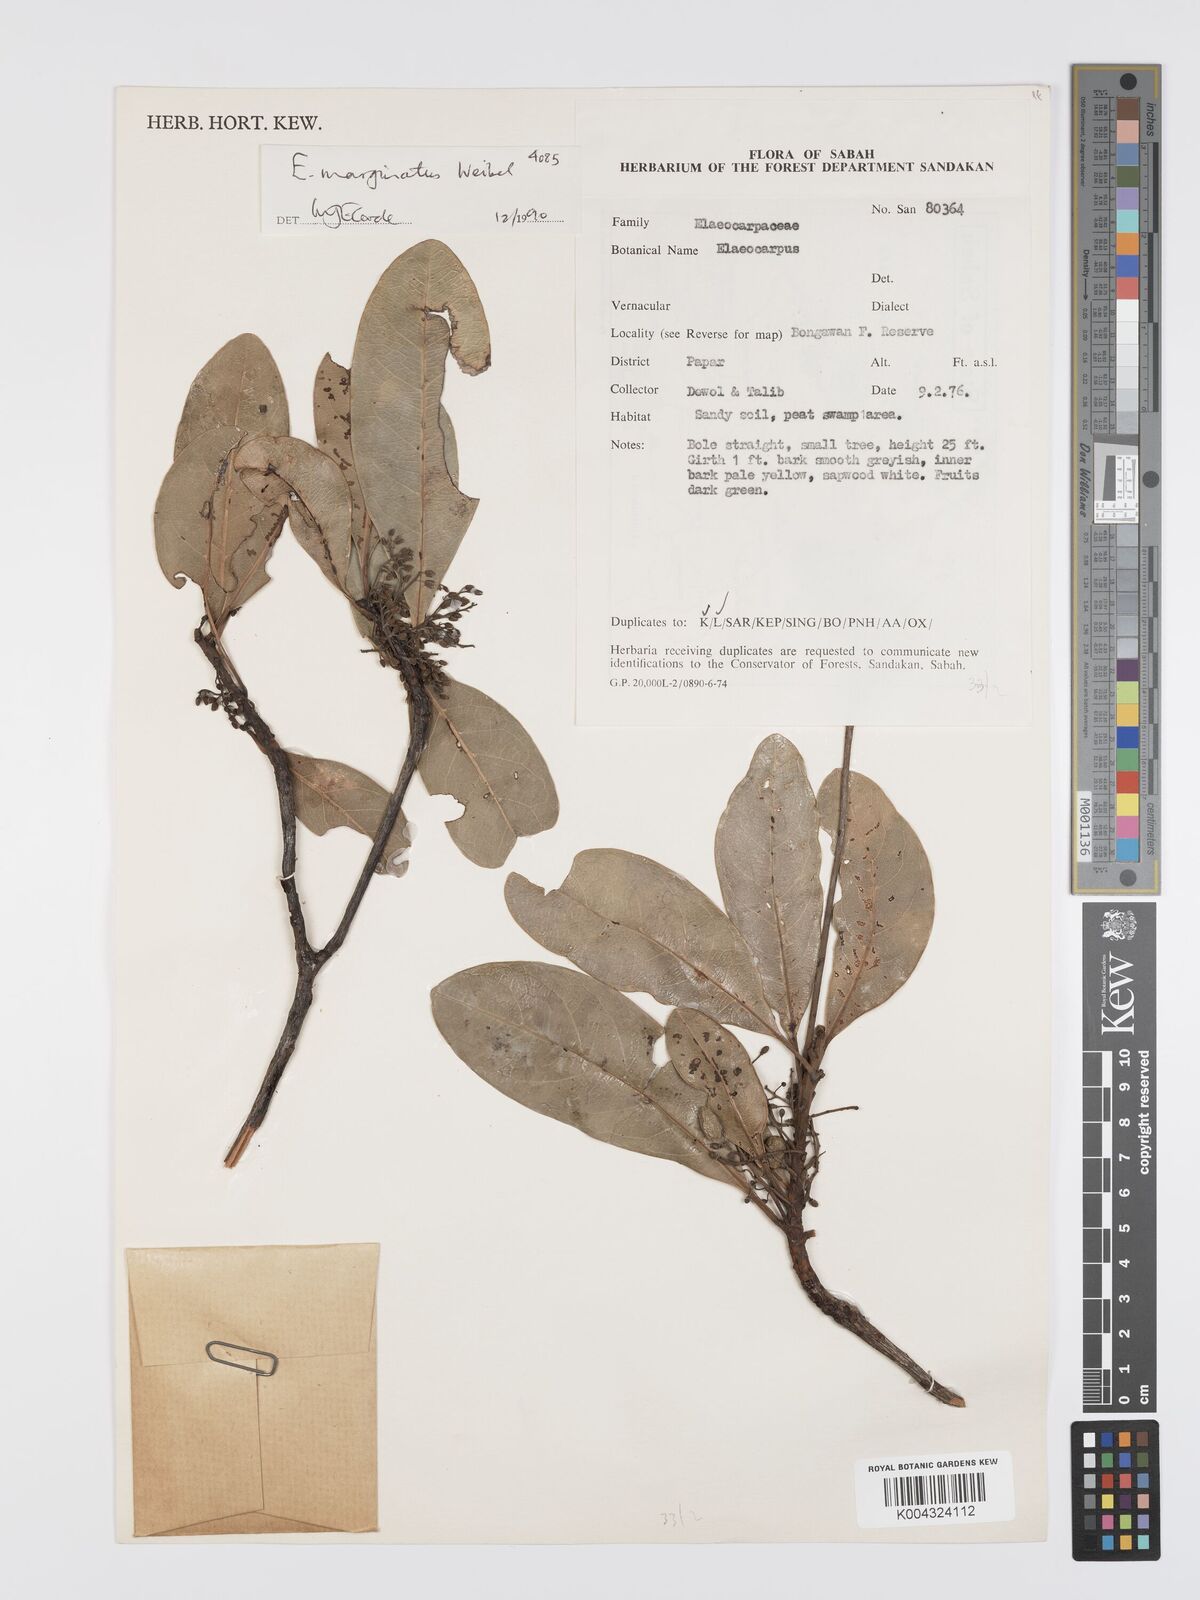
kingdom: Plantae
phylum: Tracheophyta
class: Magnoliopsida
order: Oxalidales
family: Elaeocarpaceae
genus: Elaeocarpus
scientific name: Elaeocarpus marginatus
